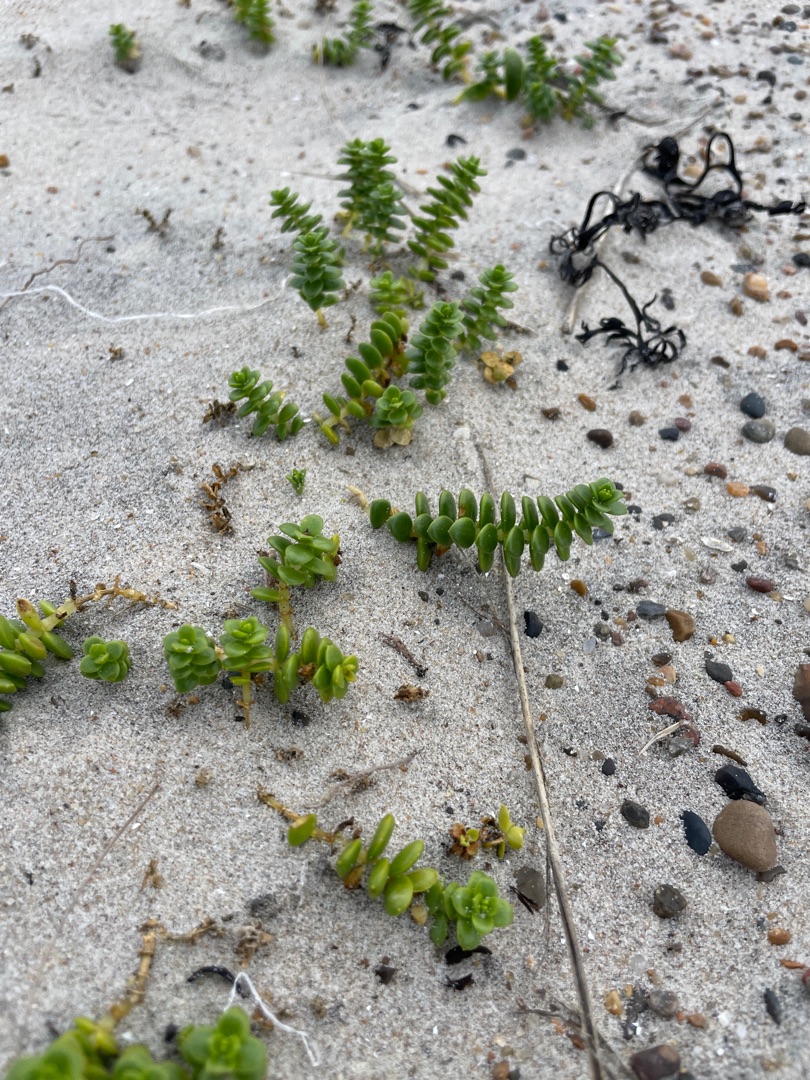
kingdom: Plantae
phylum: Tracheophyta
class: Magnoliopsida
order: Caryophyllales
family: Caryophyllaceae
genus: Honckenya
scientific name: Honckenya peploides
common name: Strandarve
